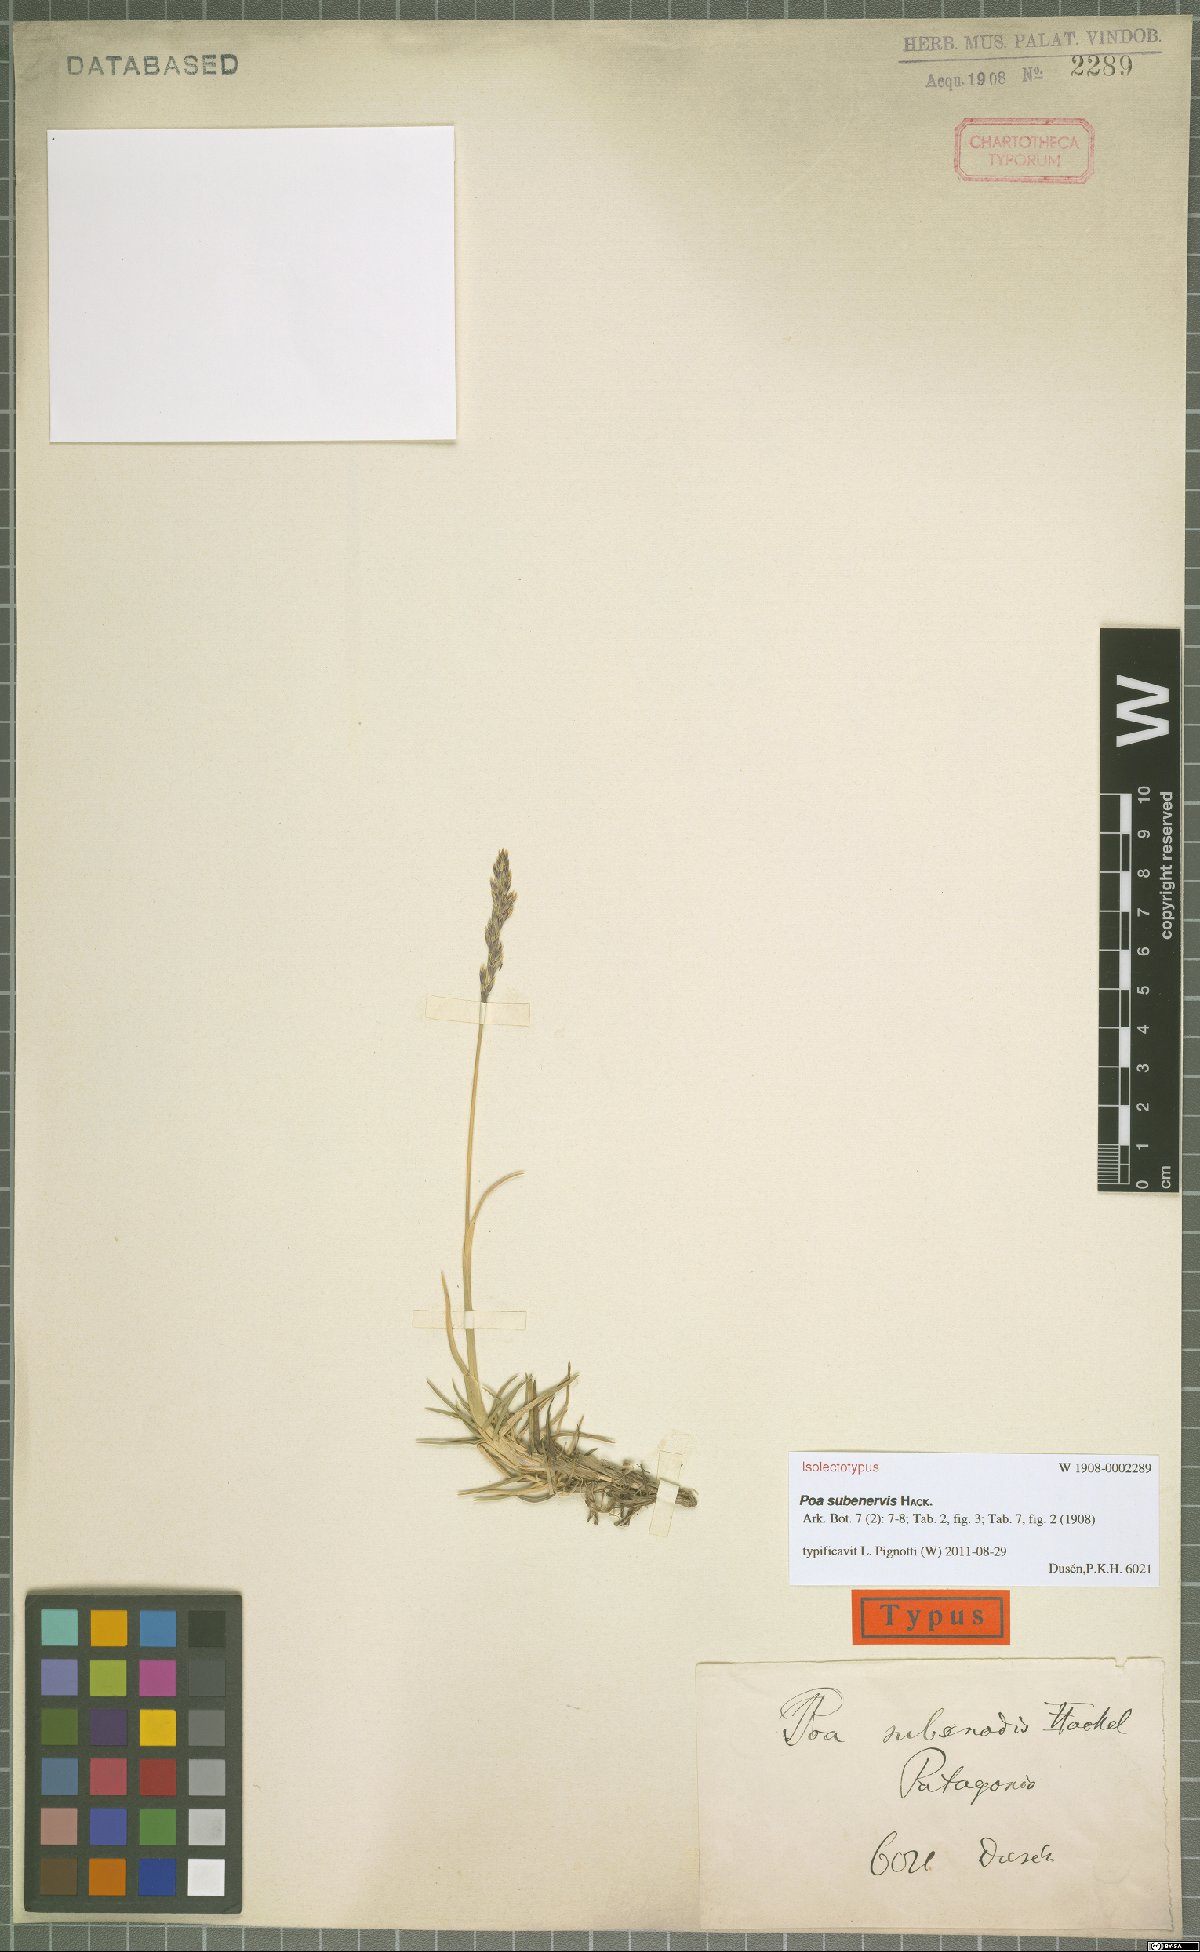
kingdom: Plantae
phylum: Tracheophyta
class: Liliopsida
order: Poales
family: Poaceae
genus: Nicoraepoa
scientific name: Nicoraepoa subenervis
